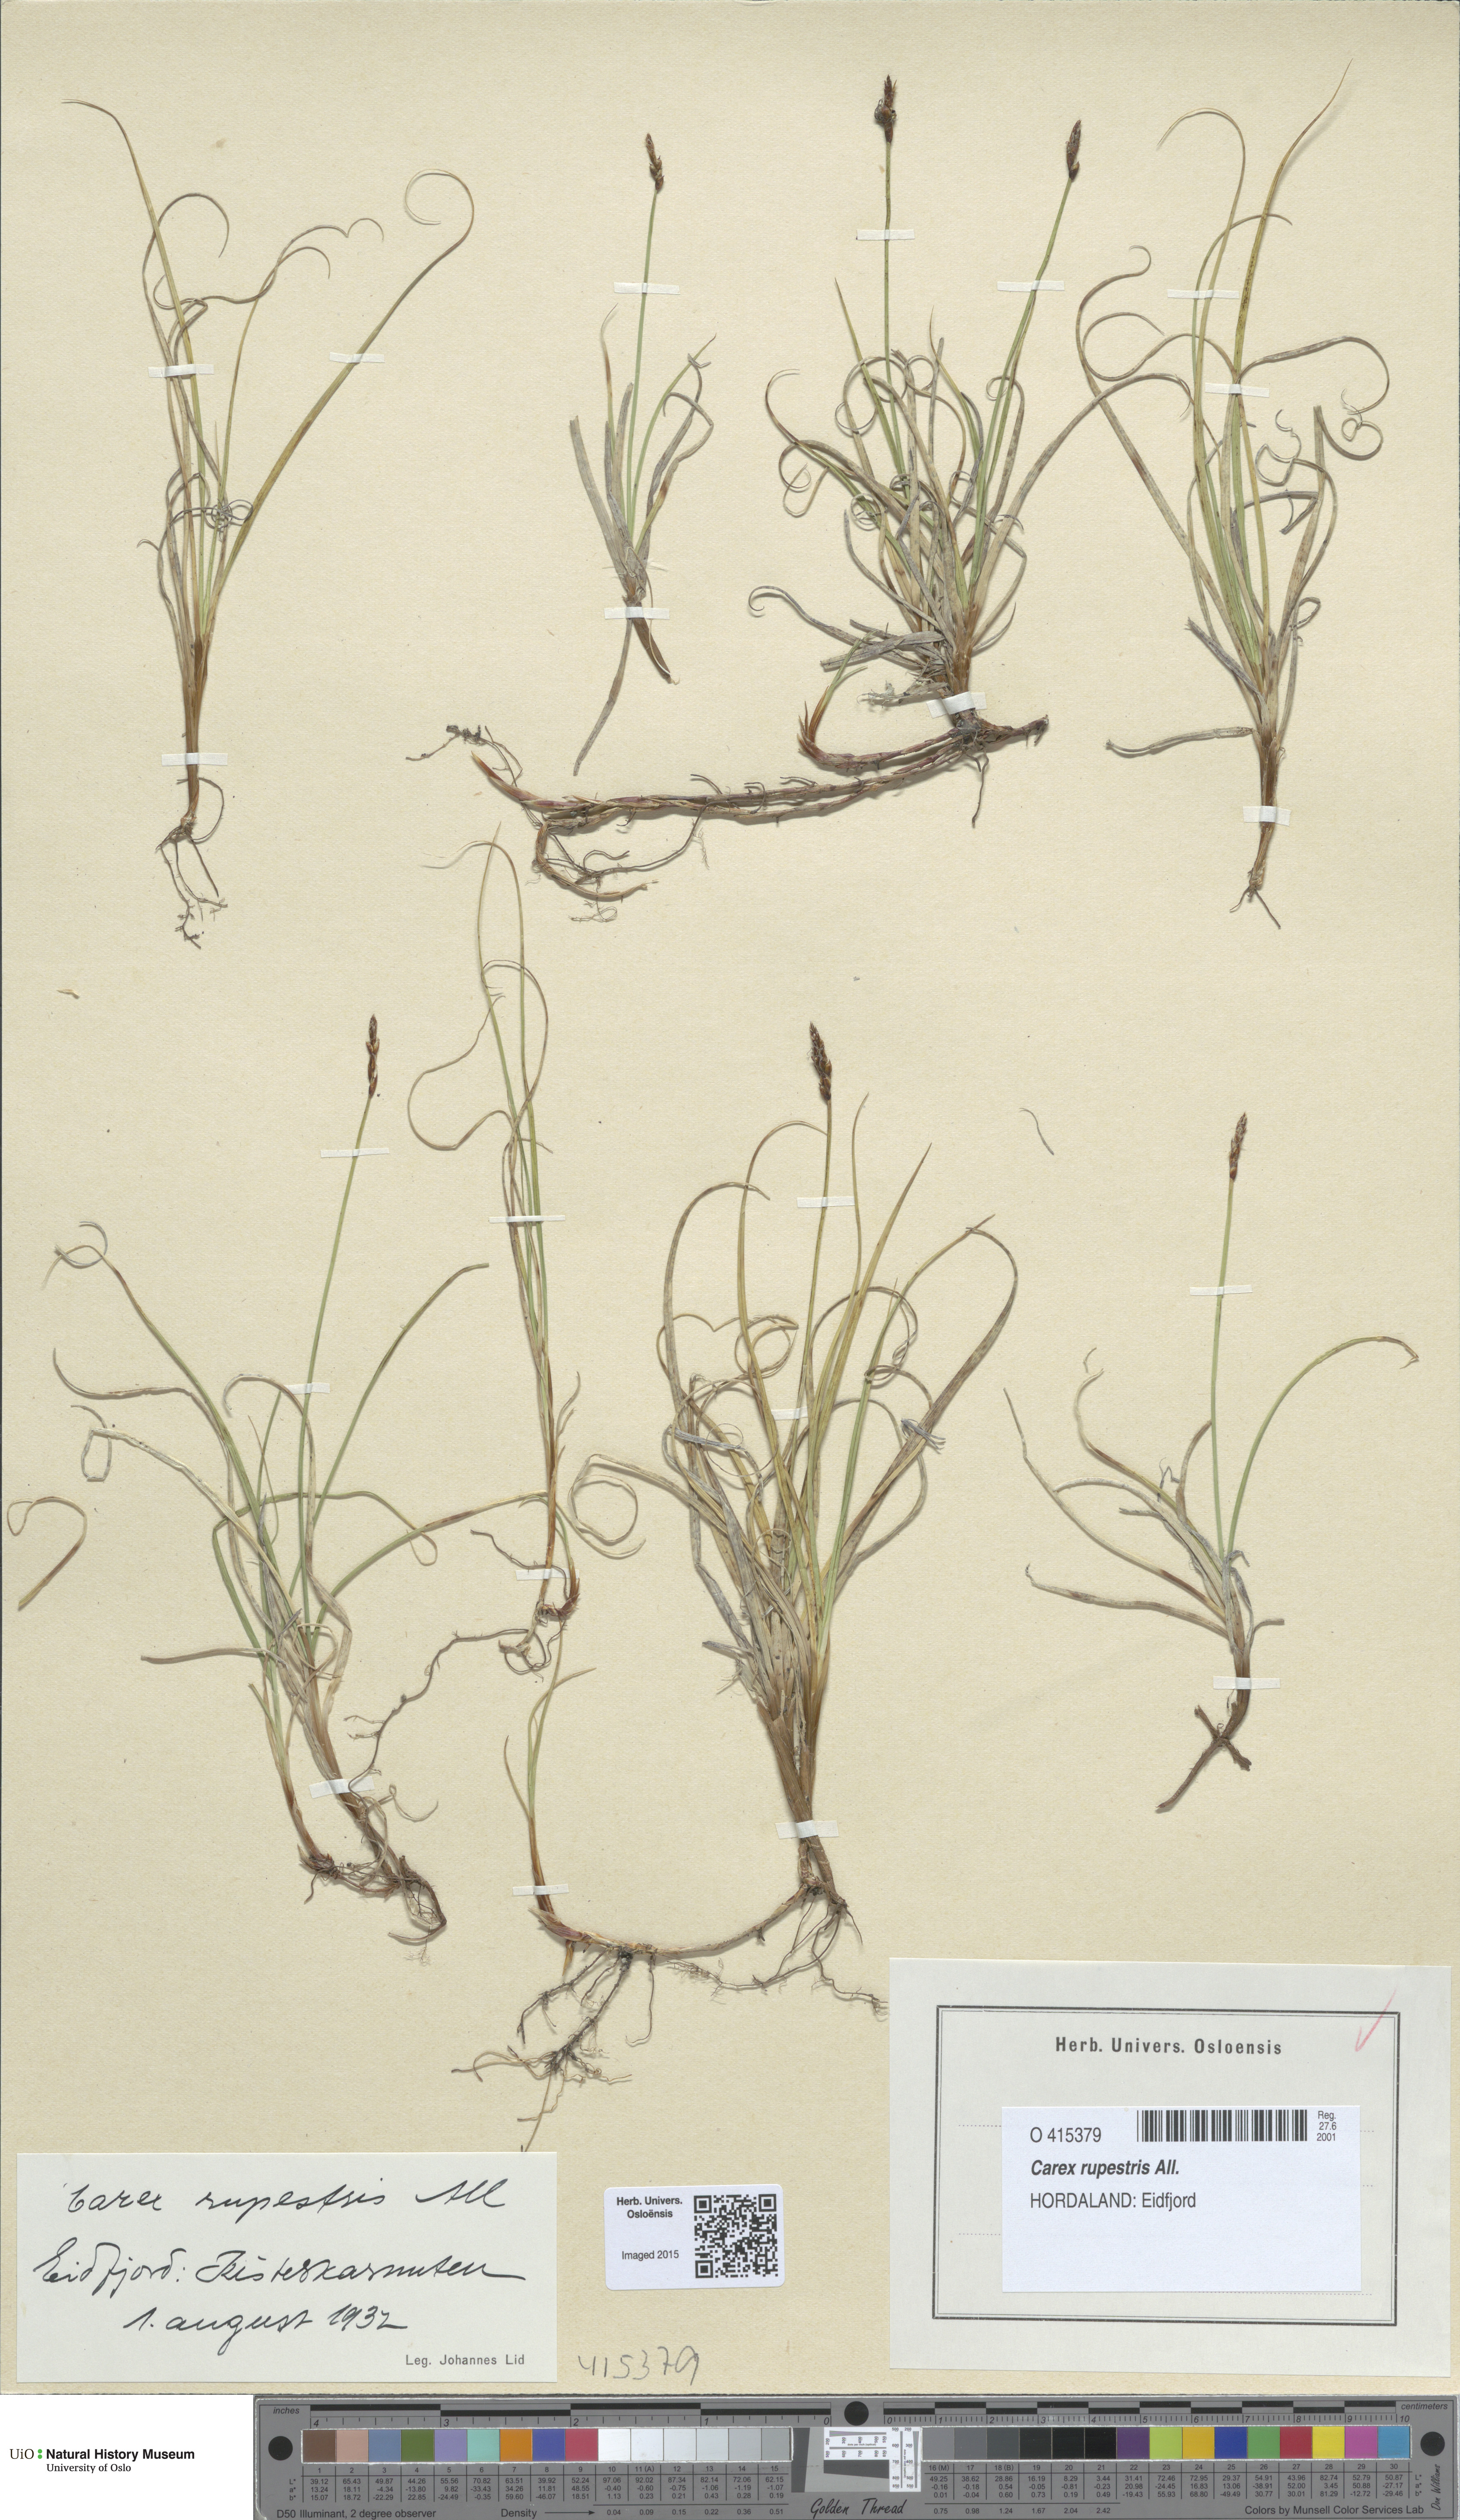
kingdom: Plantae
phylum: Tracheophyta
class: Liliopsida
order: Poales
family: Cyperaceae
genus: Carex
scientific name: Carex rupestris
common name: Rock sedge
